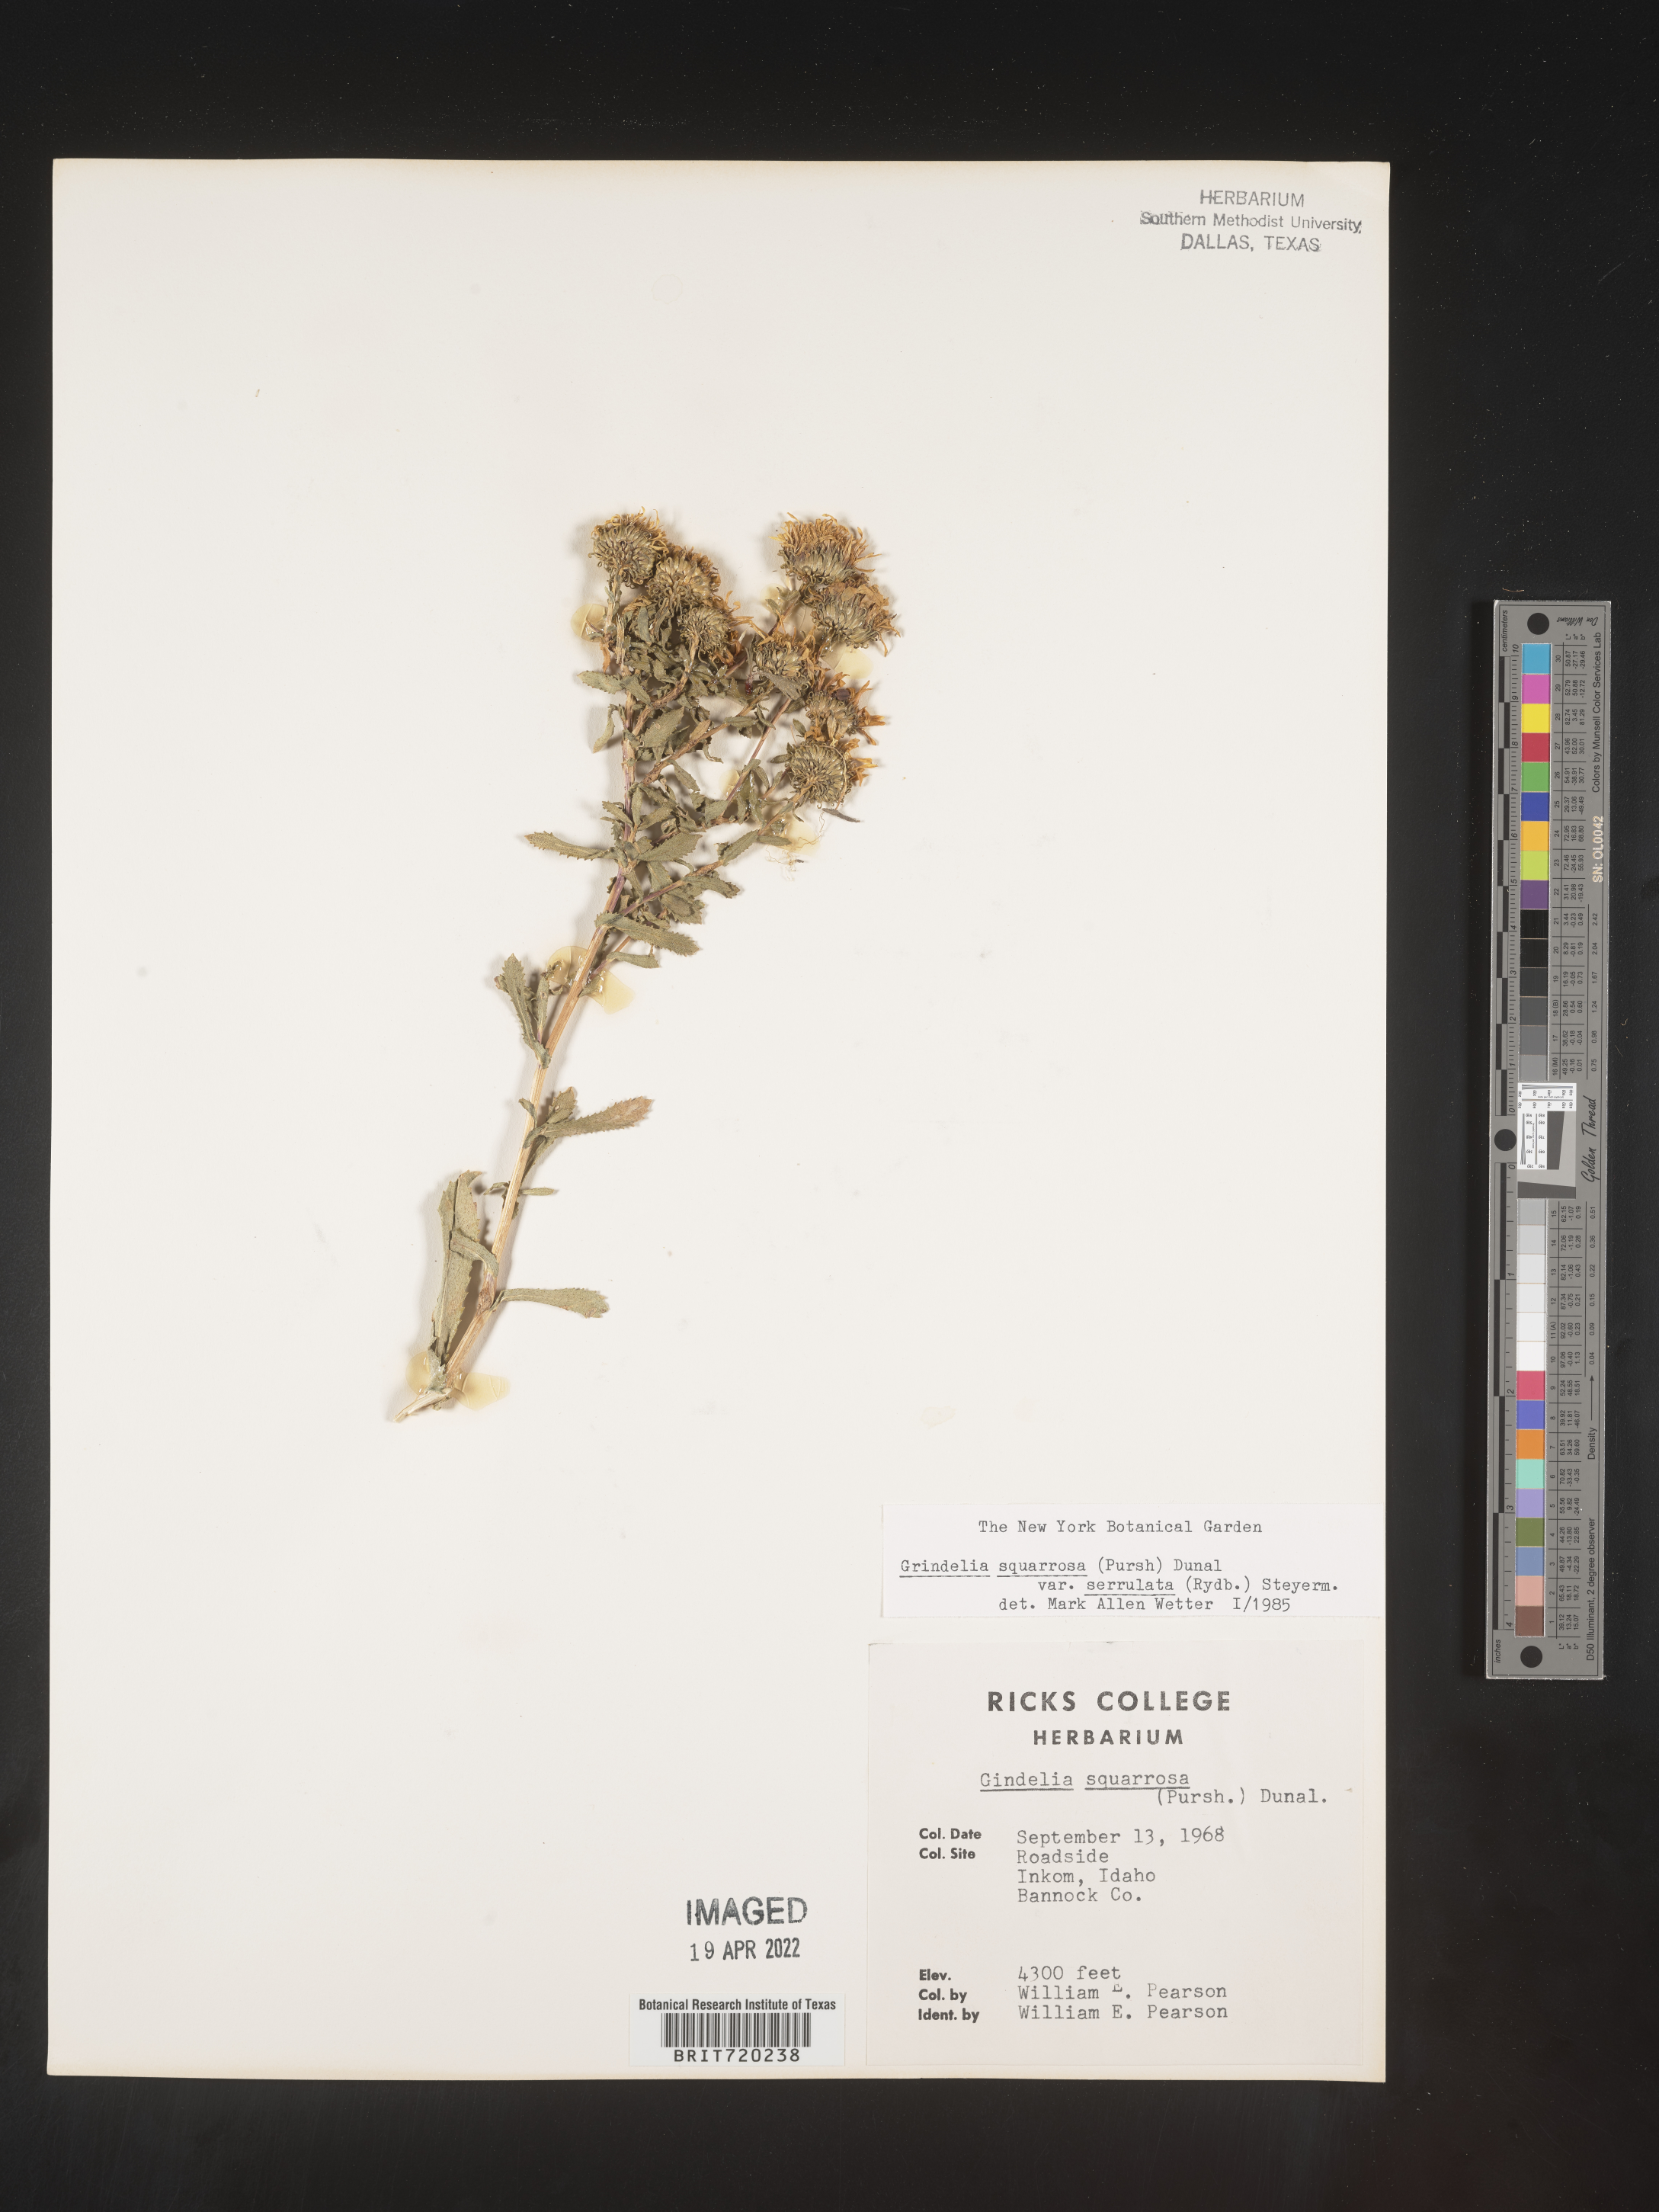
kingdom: Plantae
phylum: Tracheophyta
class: Magnoliopsida
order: Asterales
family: Asteraceae
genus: Grindelia
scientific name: Grindelia squarrosa
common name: Curly-cup gumweed
